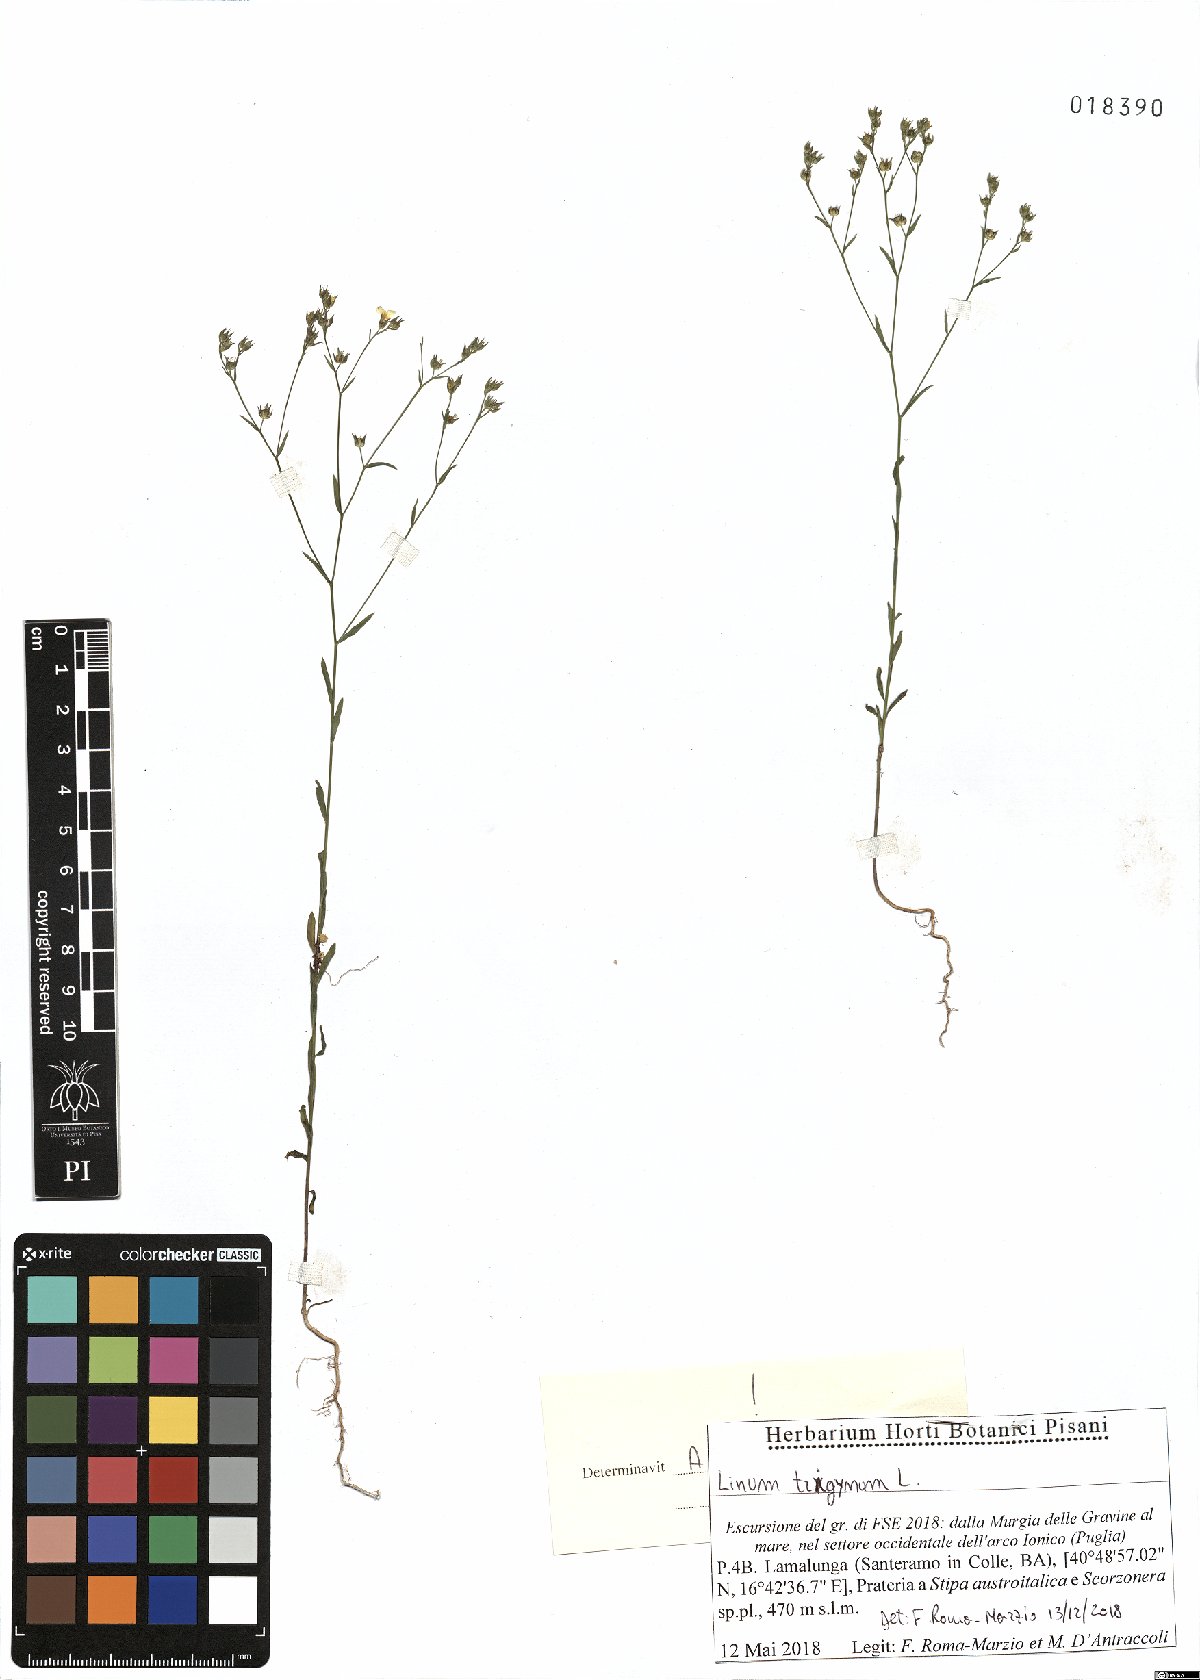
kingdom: Plantae
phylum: Tracheophyta
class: Magnoliopsida
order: Malpighiales
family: Linaceae
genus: Linum
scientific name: Linum trigynum
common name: French flax
